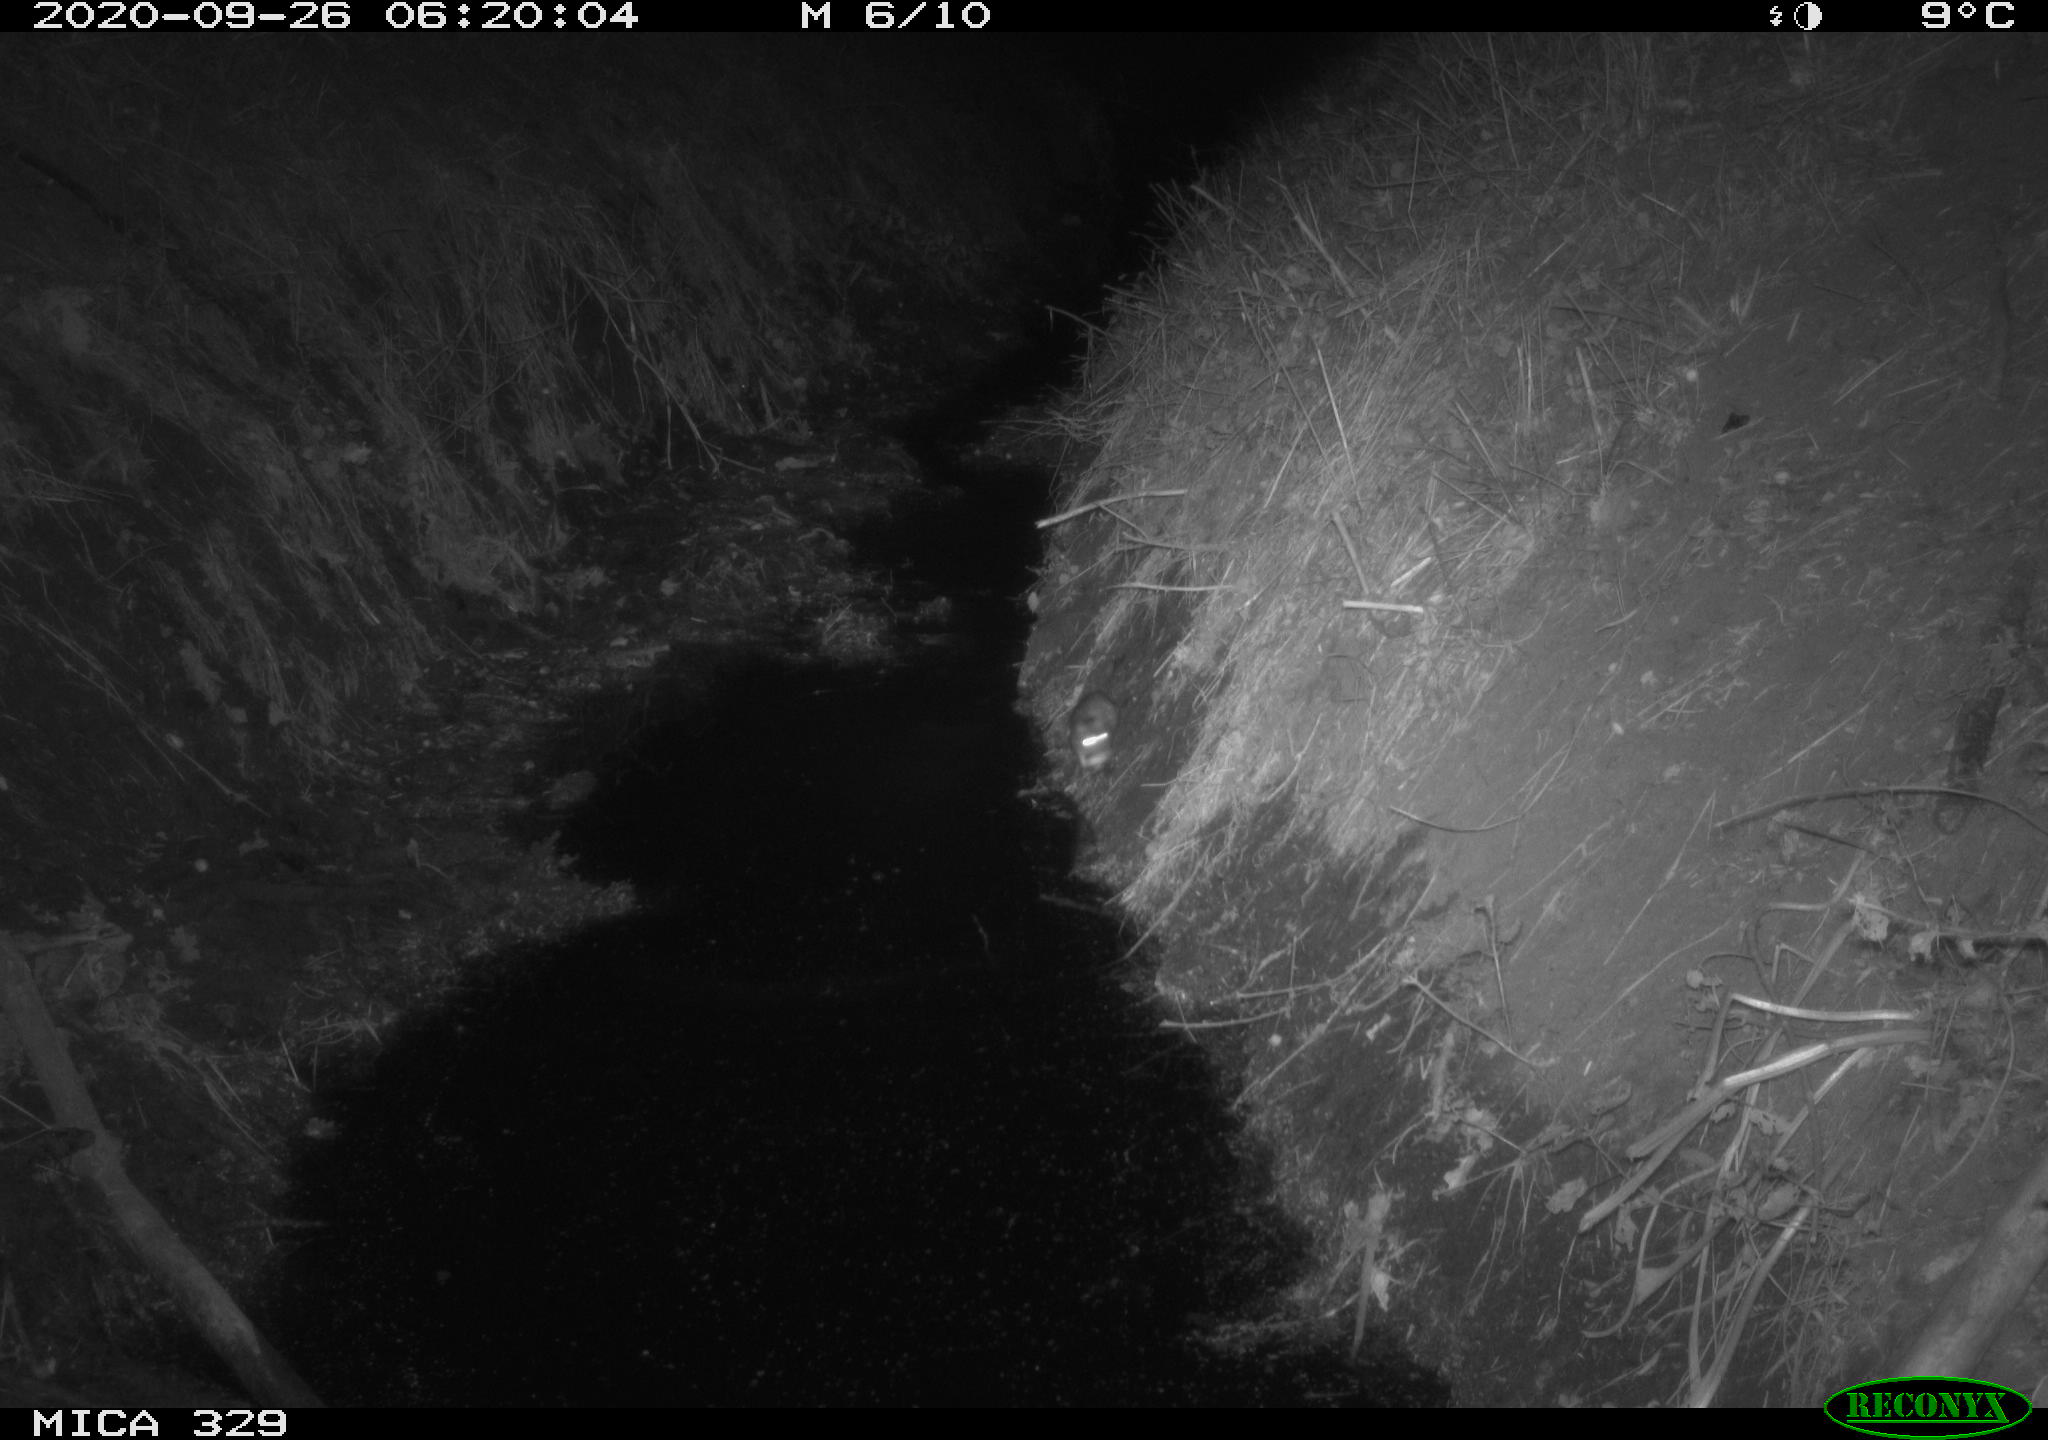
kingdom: Animalia
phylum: Chordata
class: Mammalia
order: Rodentia
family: Muridae
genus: Rattus
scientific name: Rattus norvegicus
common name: Brown rat
